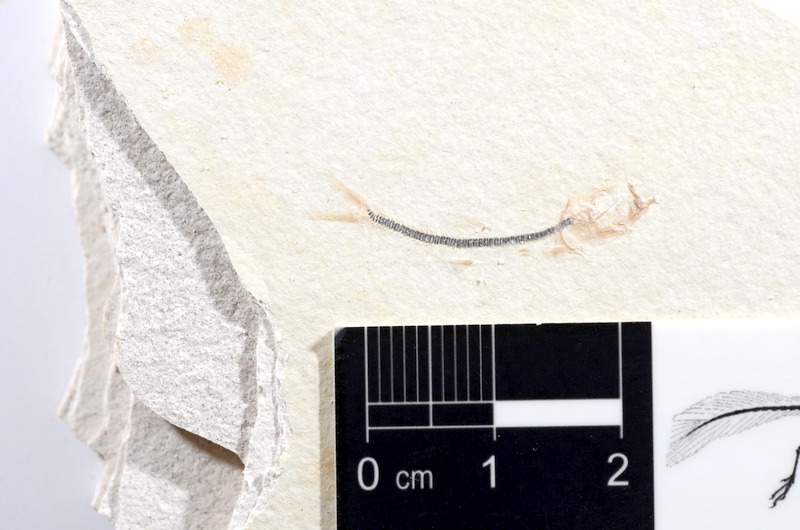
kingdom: Animalia
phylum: Chordata
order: Salmoniformes
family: Orthogonikleithridae
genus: Orthogonikleithrus
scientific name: Orthogonikleithrus hoelli
